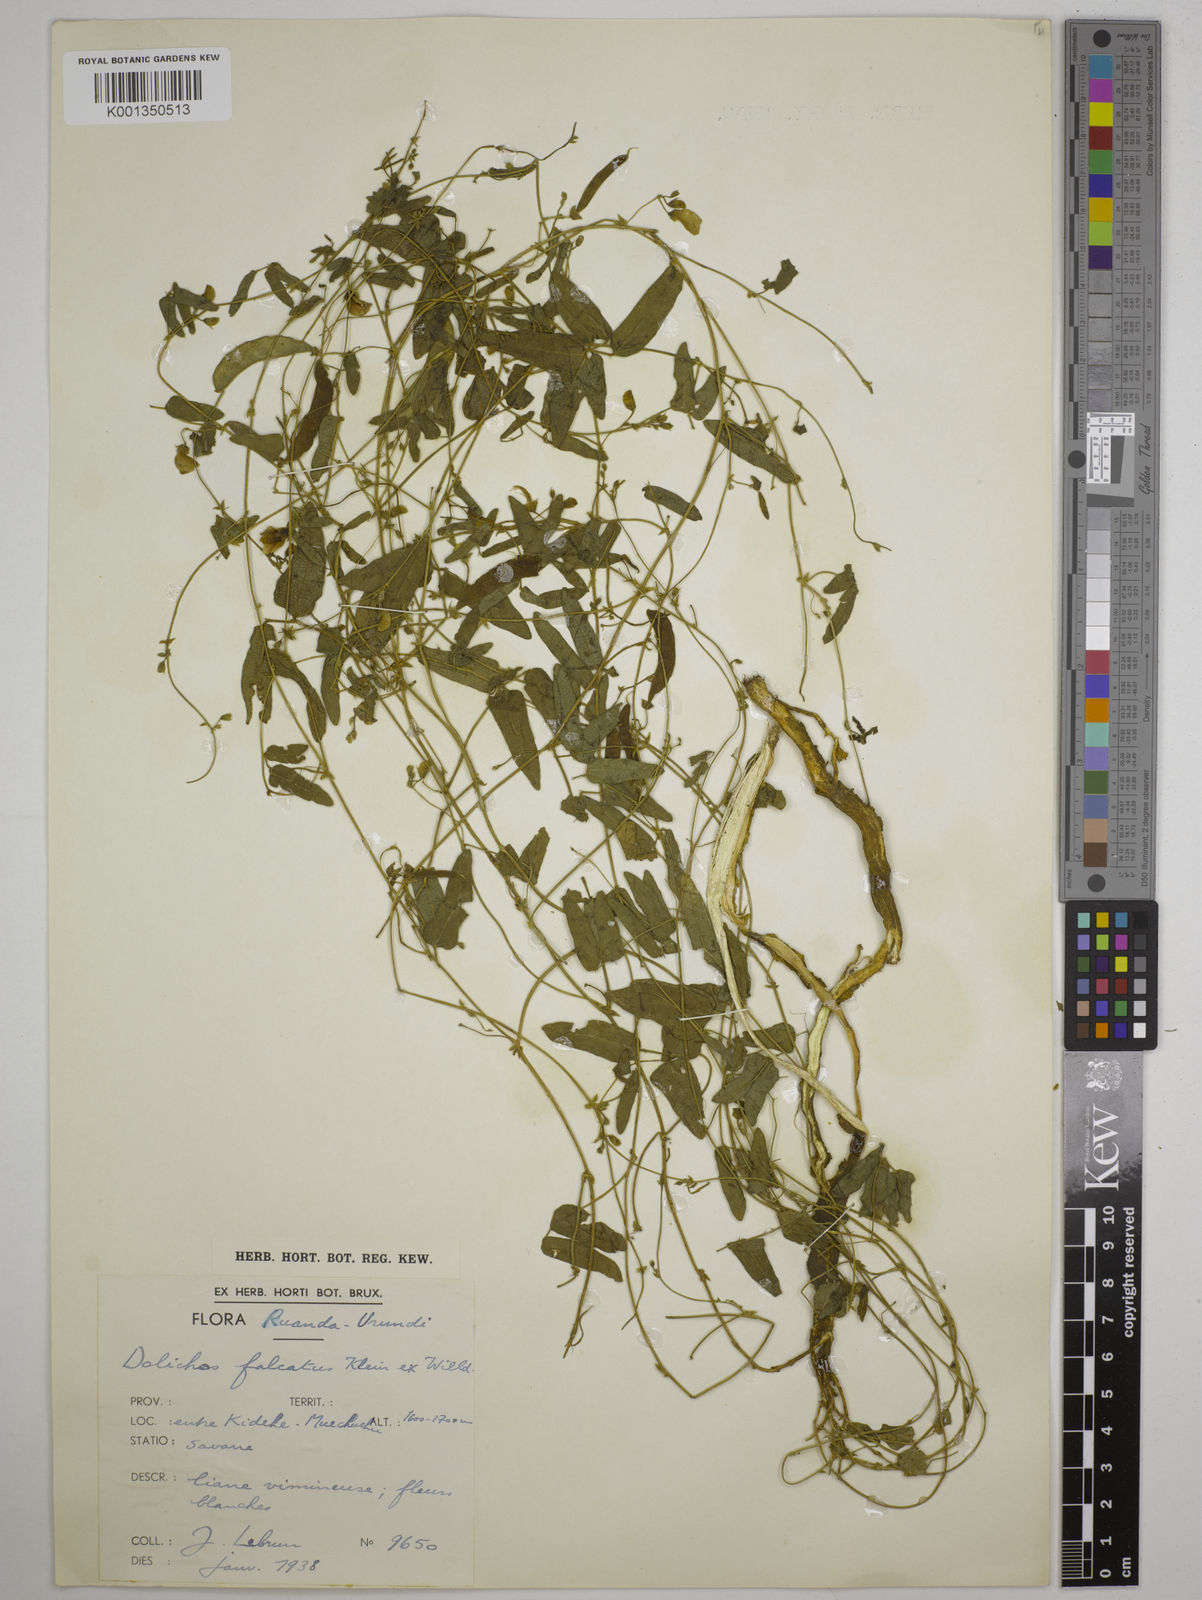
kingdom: Plantae
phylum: Tracheophyta
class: Magnoliopsida
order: Fabales
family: Fabaceae
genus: Dolichos
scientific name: Dolichos
